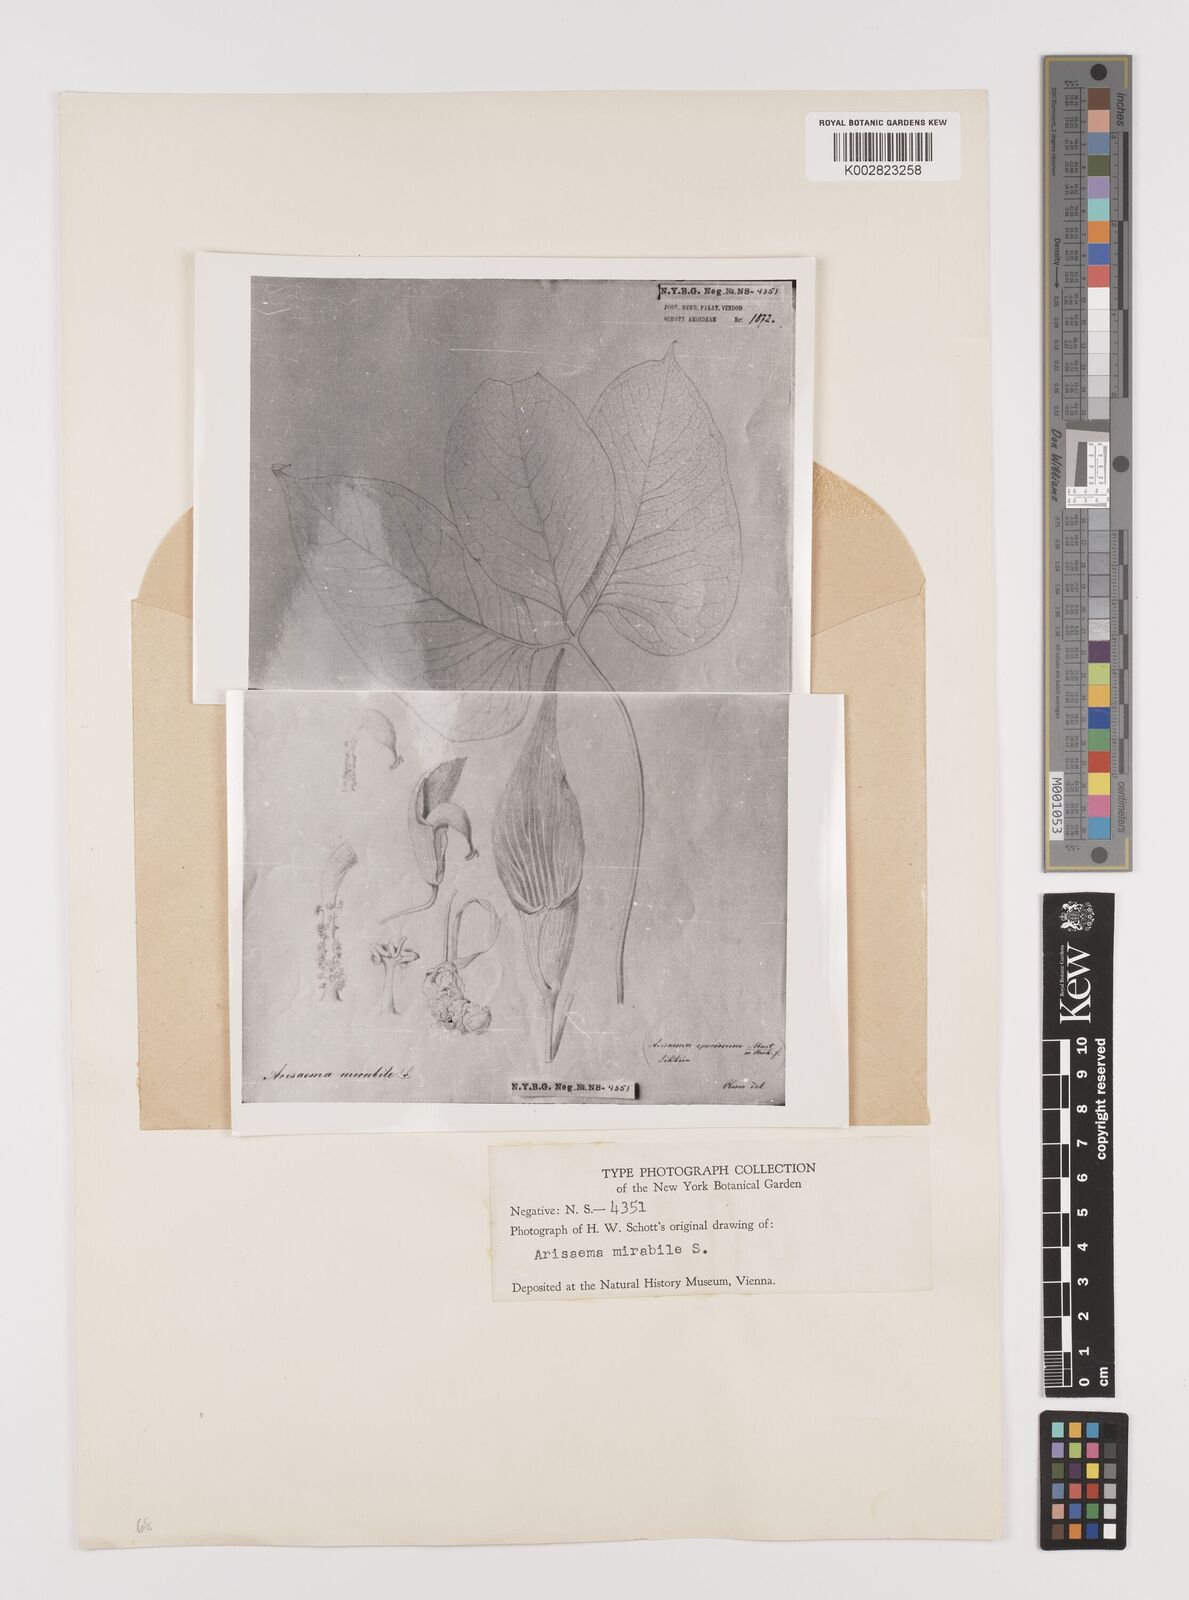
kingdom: Plantae
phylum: Tracheophyta
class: Liliopsida
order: Alismatales
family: Araceae
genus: Arisaema
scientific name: Arisaema speciosum
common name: Showy cobra-lily
